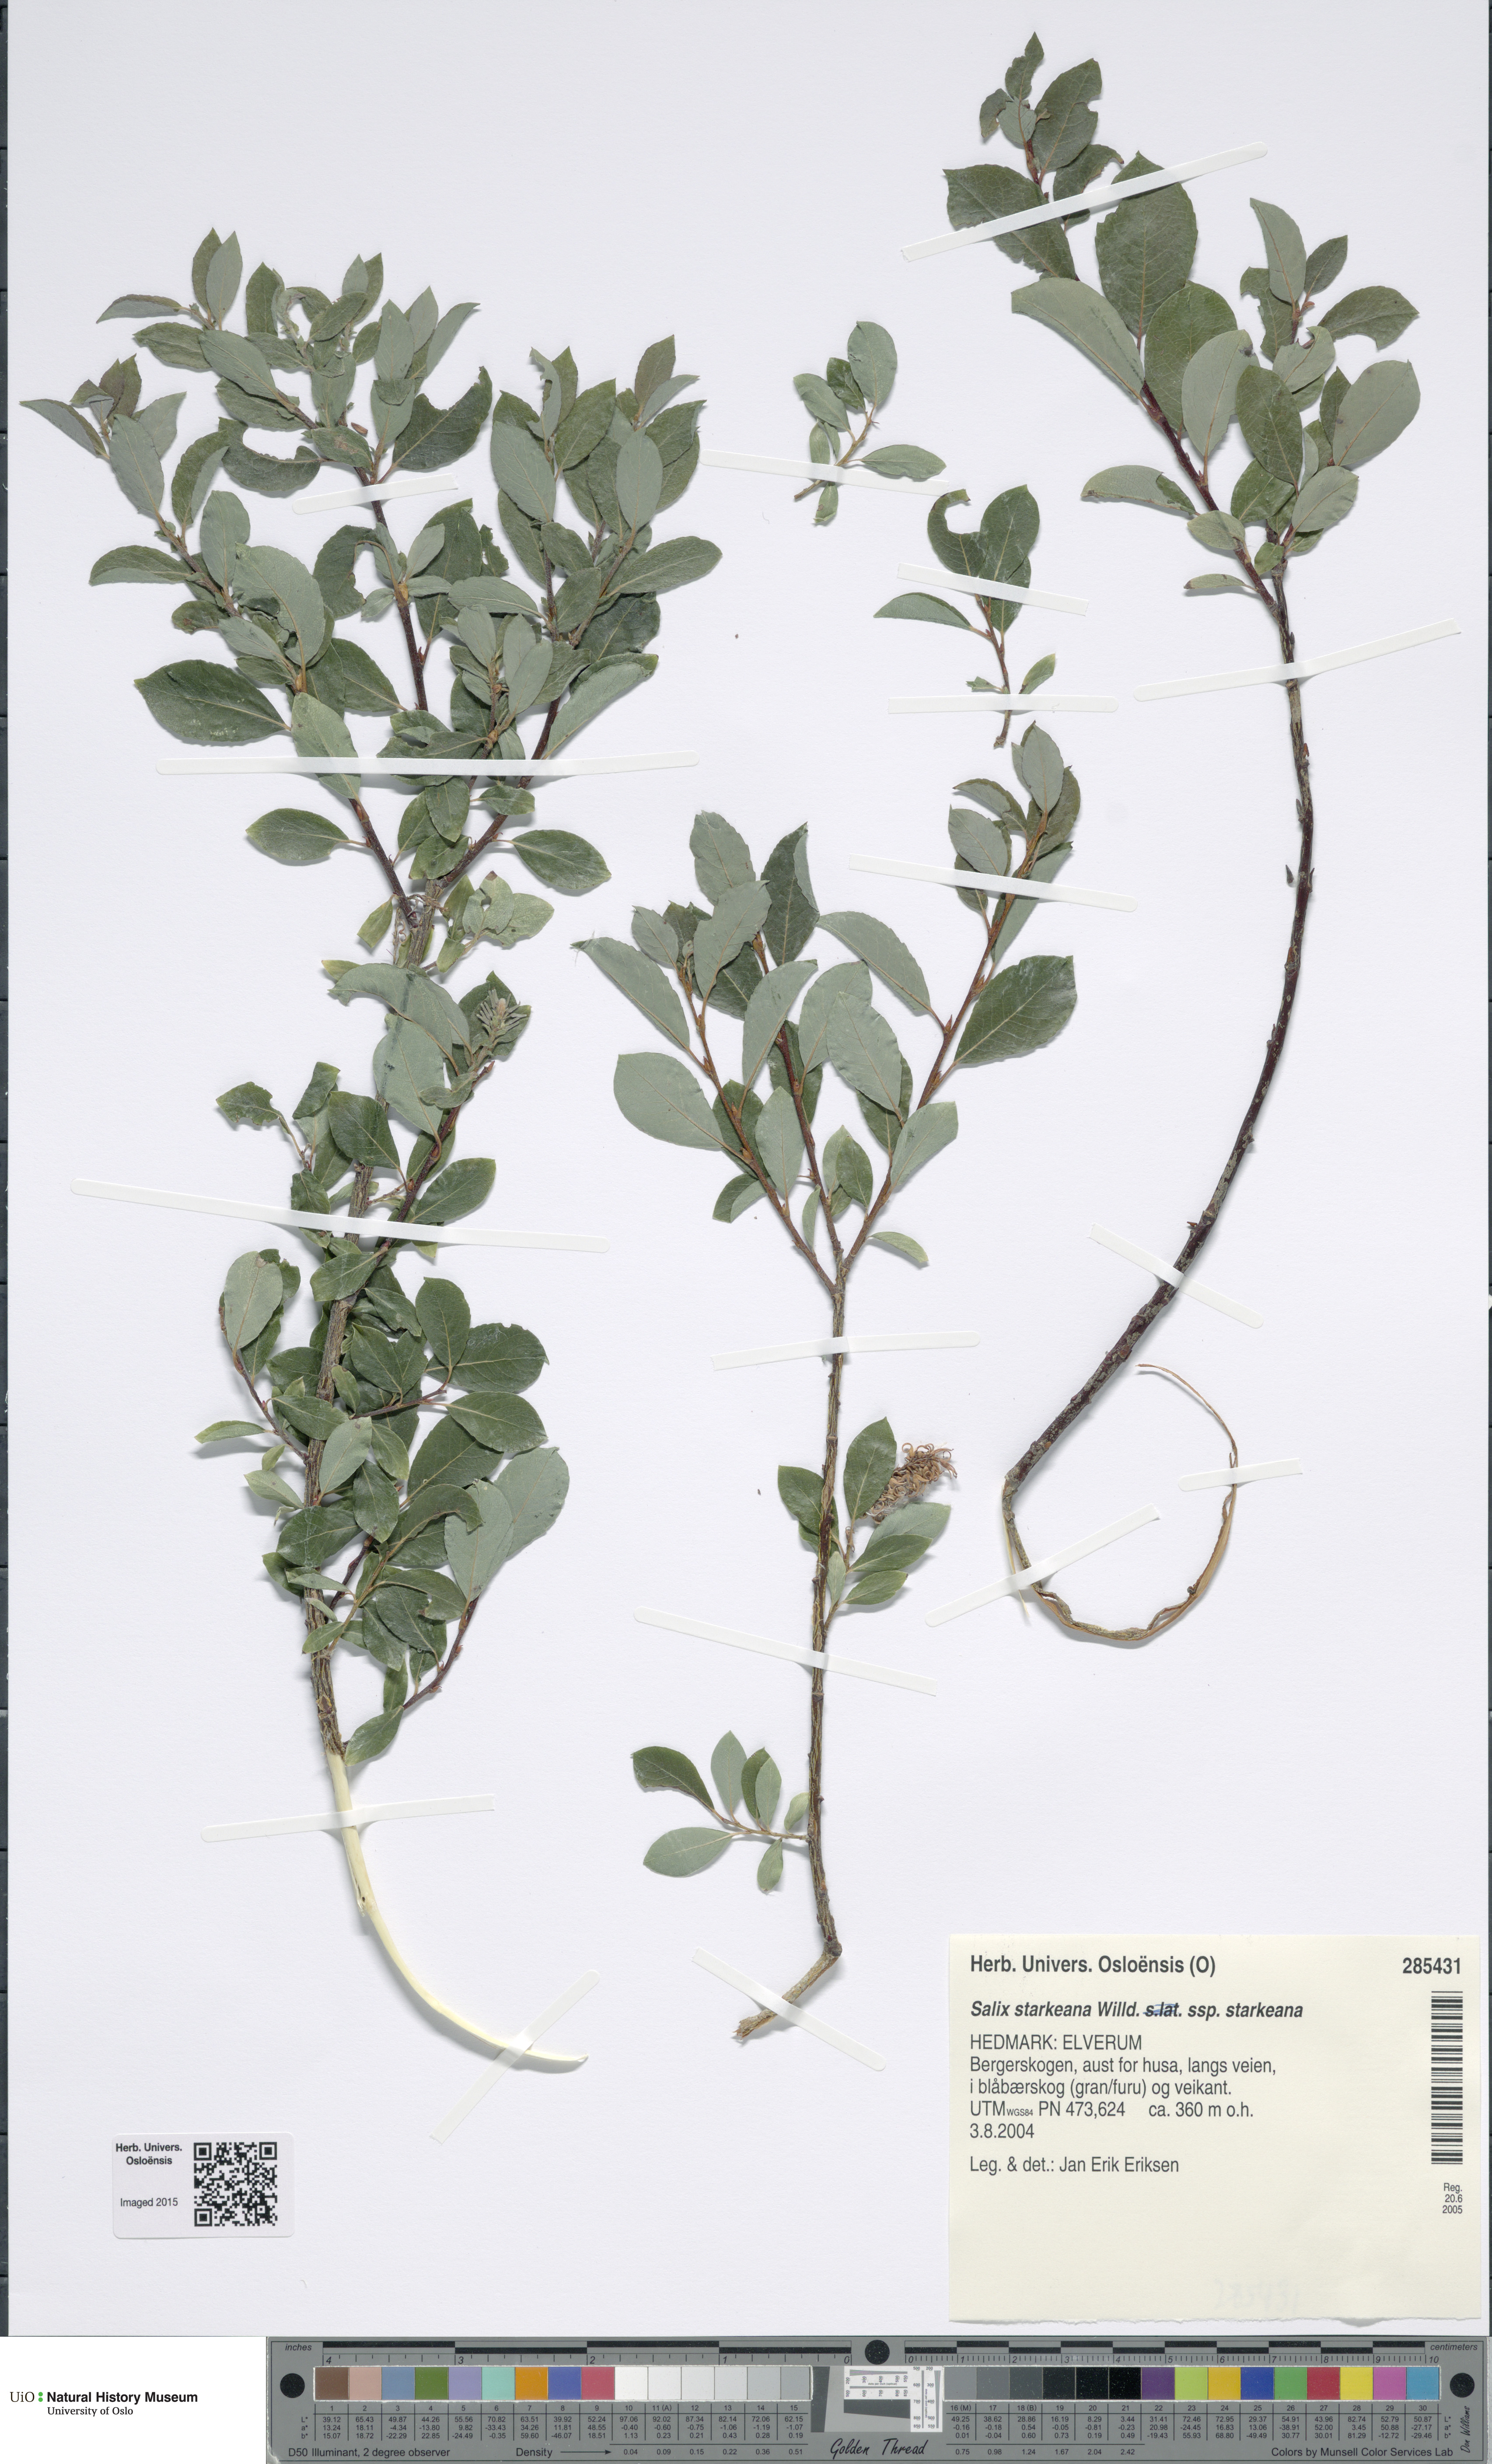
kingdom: Plantae
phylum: Tracheophyta
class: Magnoliopsida
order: Malpighiales
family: Salicaceae
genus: Salix
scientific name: Salix starkeana
